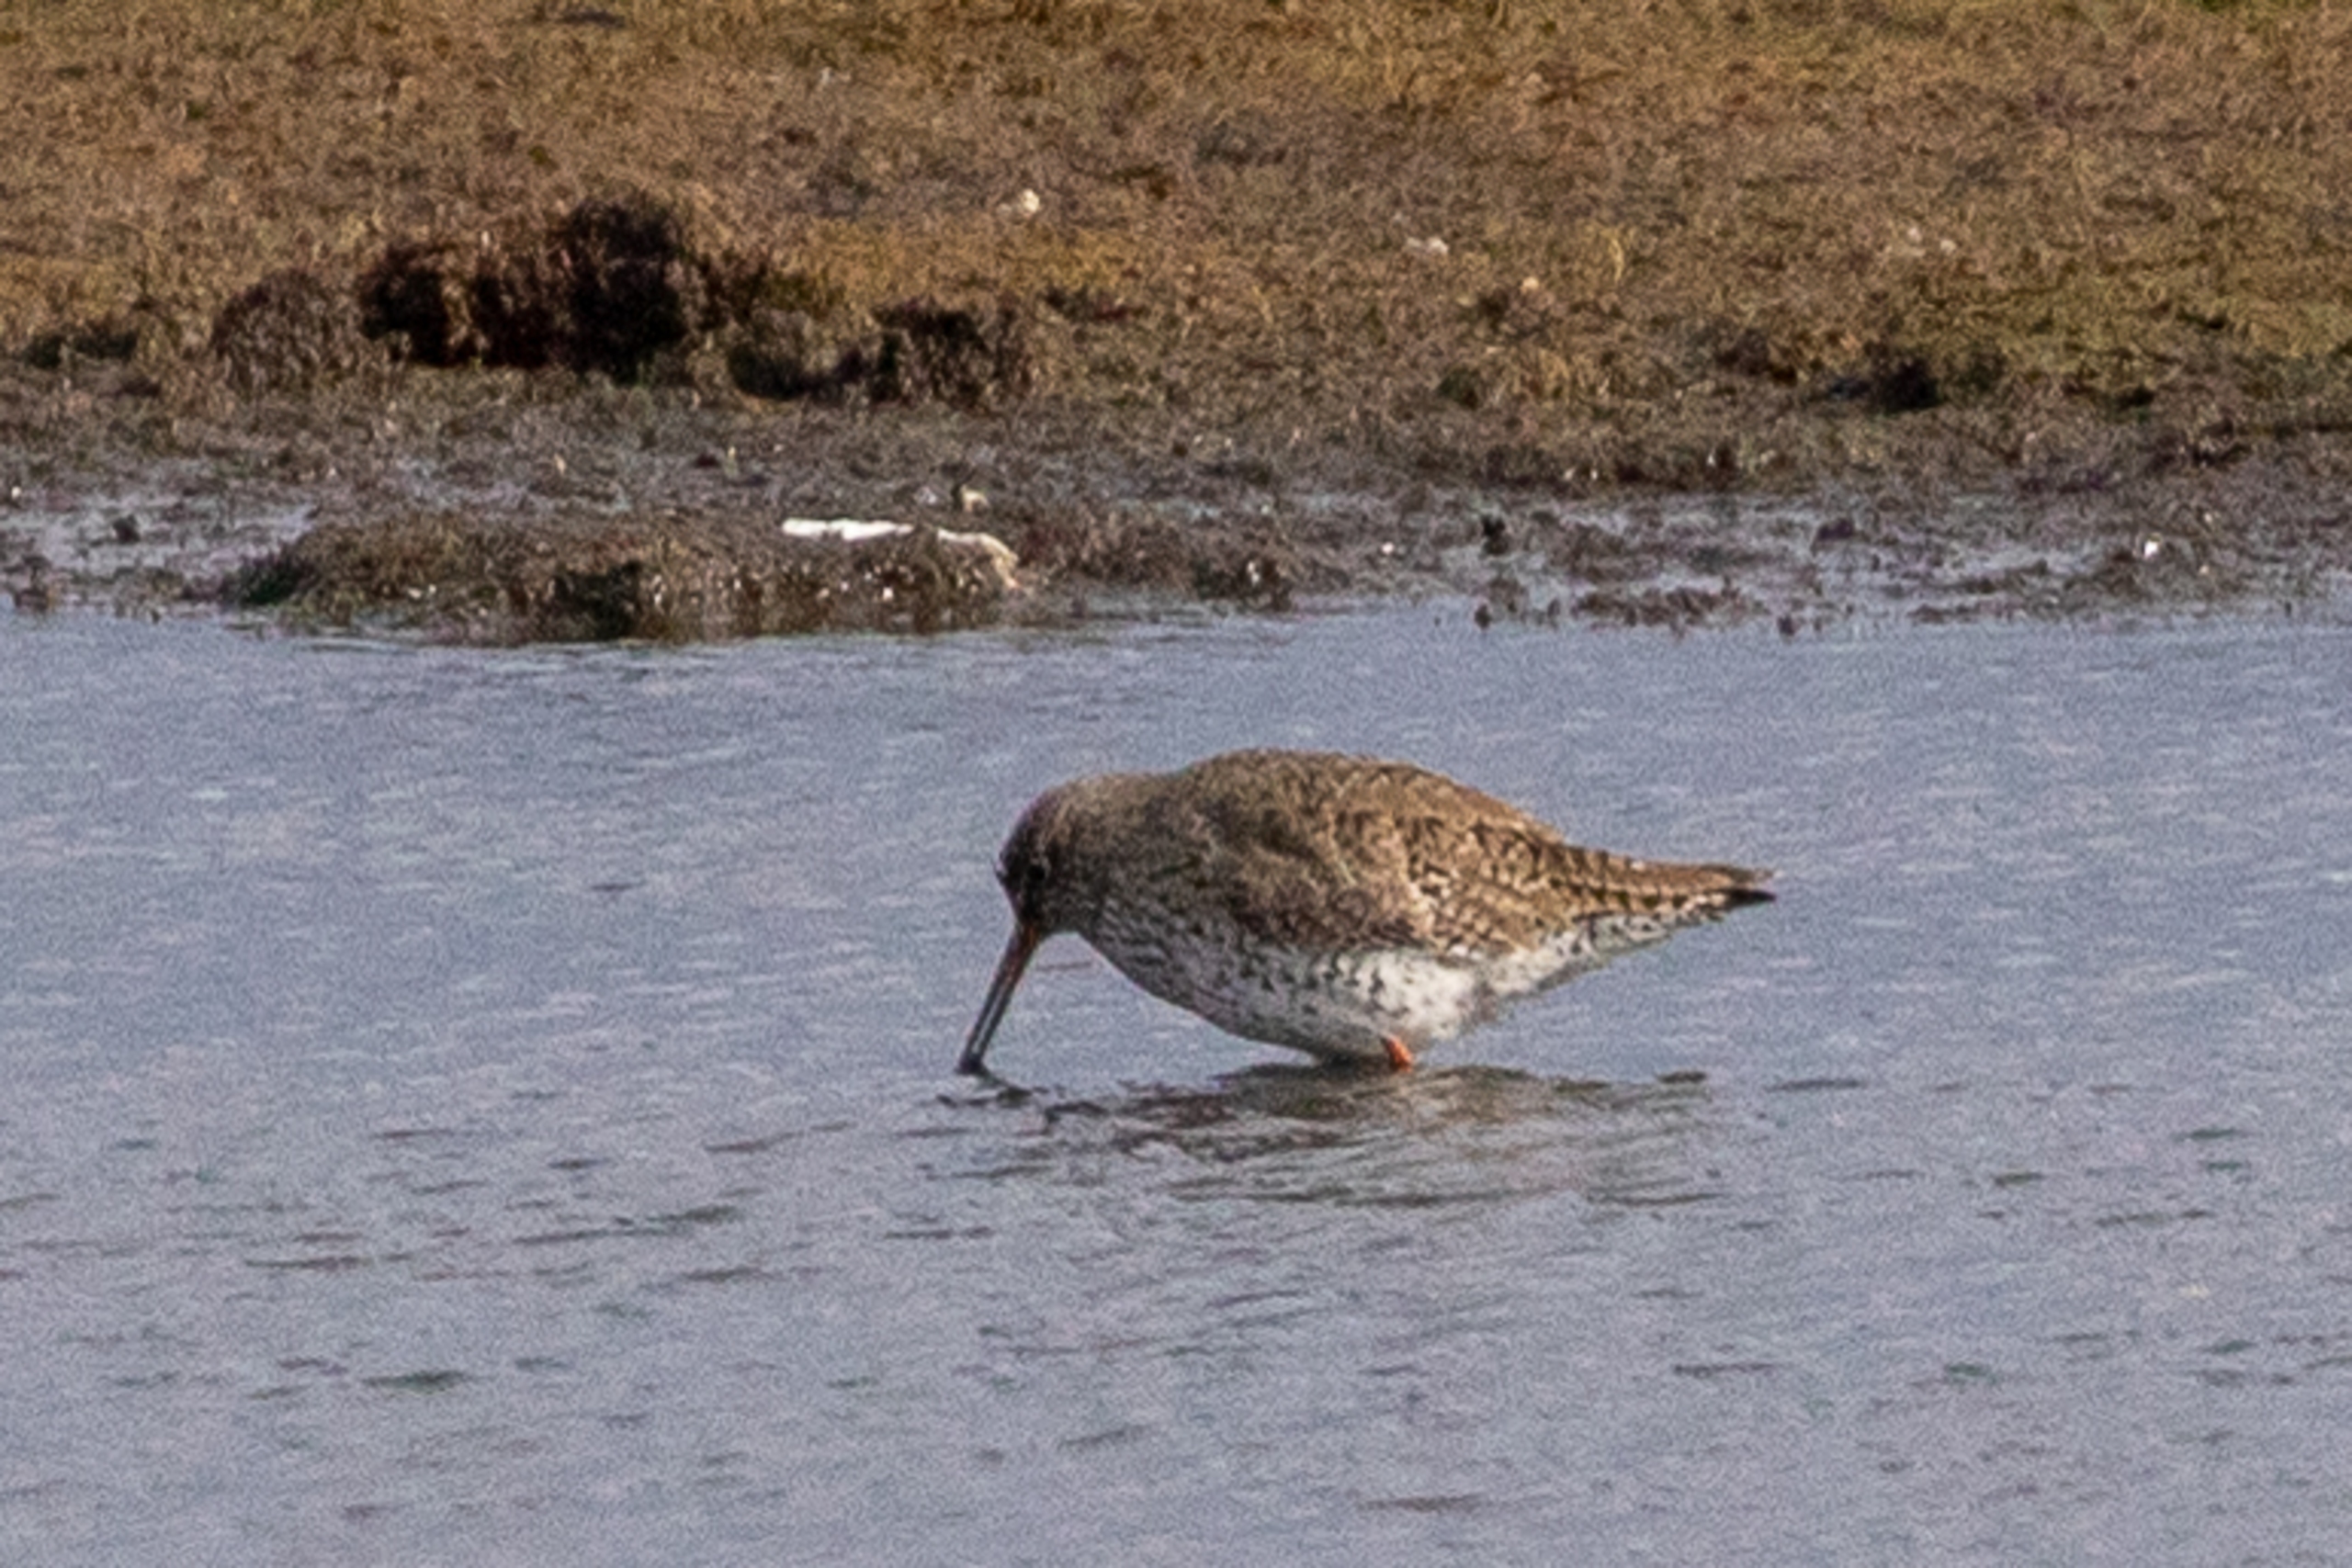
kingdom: Animalia
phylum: Chordata
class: Aves
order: Charadriiformes
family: Scolopacidae
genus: Tringa
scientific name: Tringa totanus
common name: Rødben
